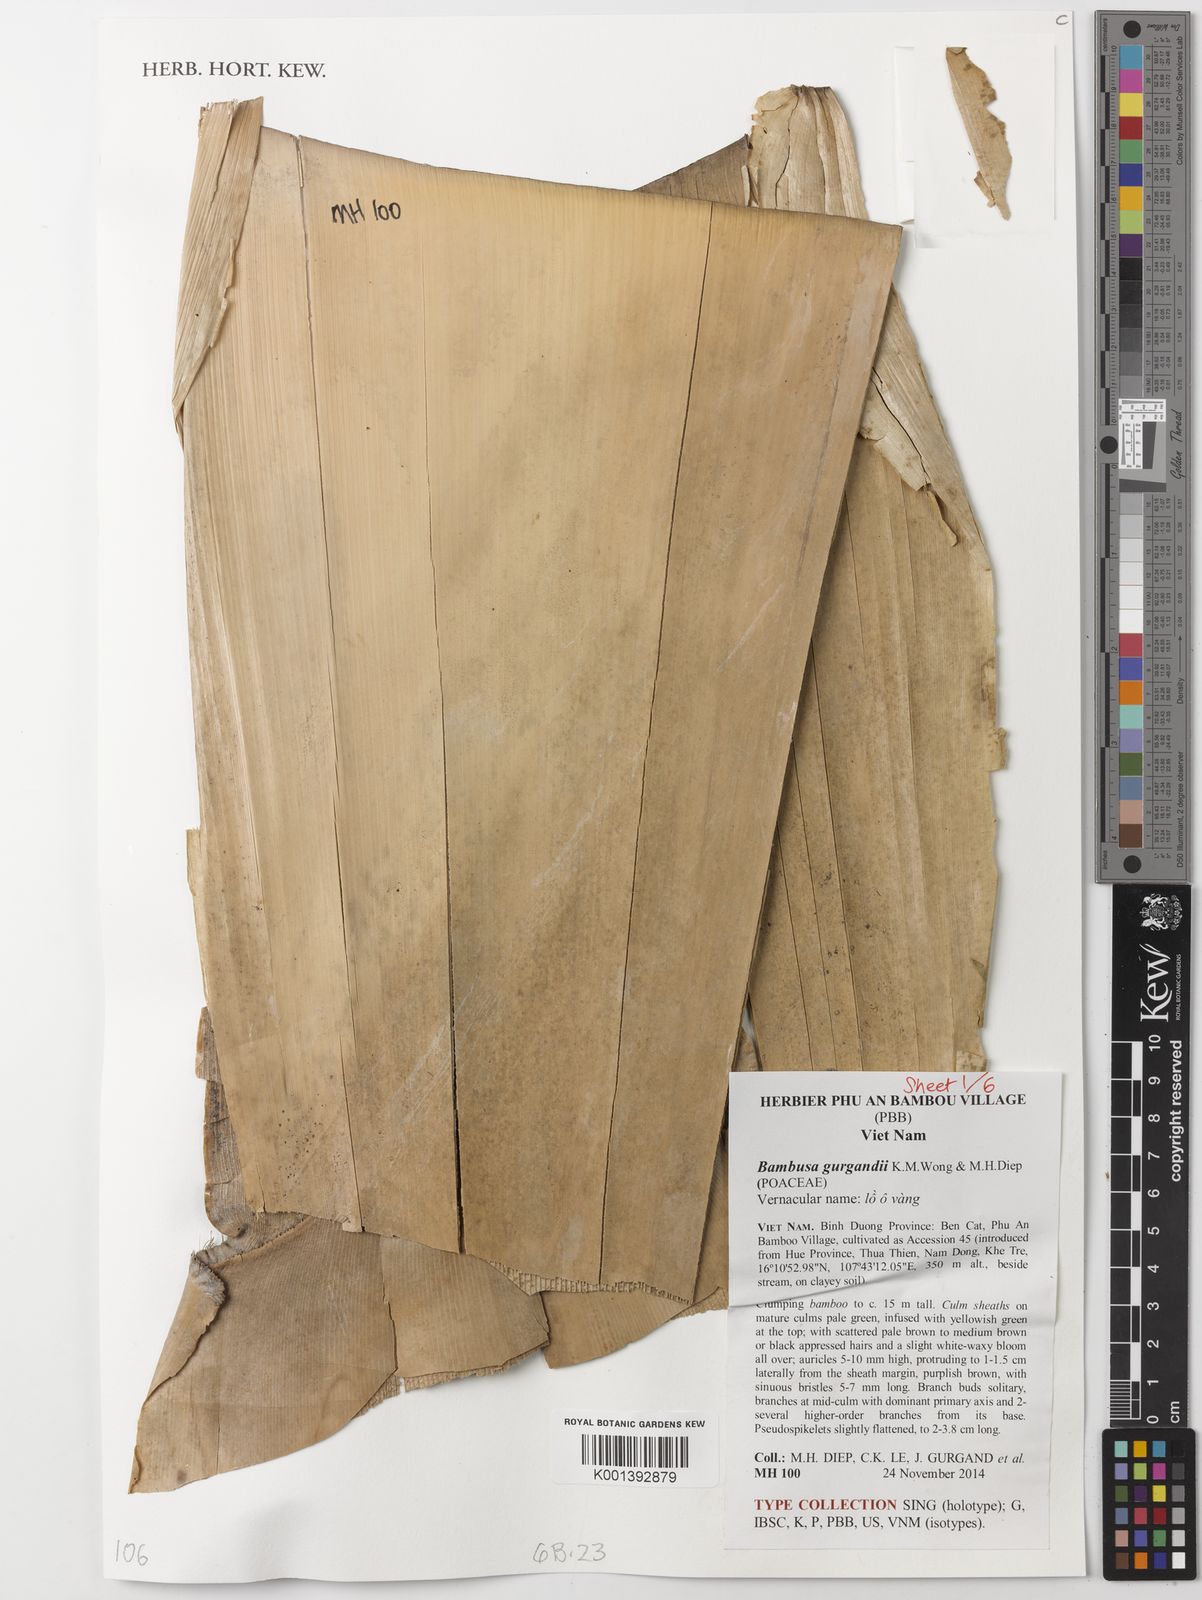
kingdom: Plantae
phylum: Tracheophyta
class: Liliopsida
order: Poales
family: Poaceae
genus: Bambusa
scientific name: Bambusa gurgandii
